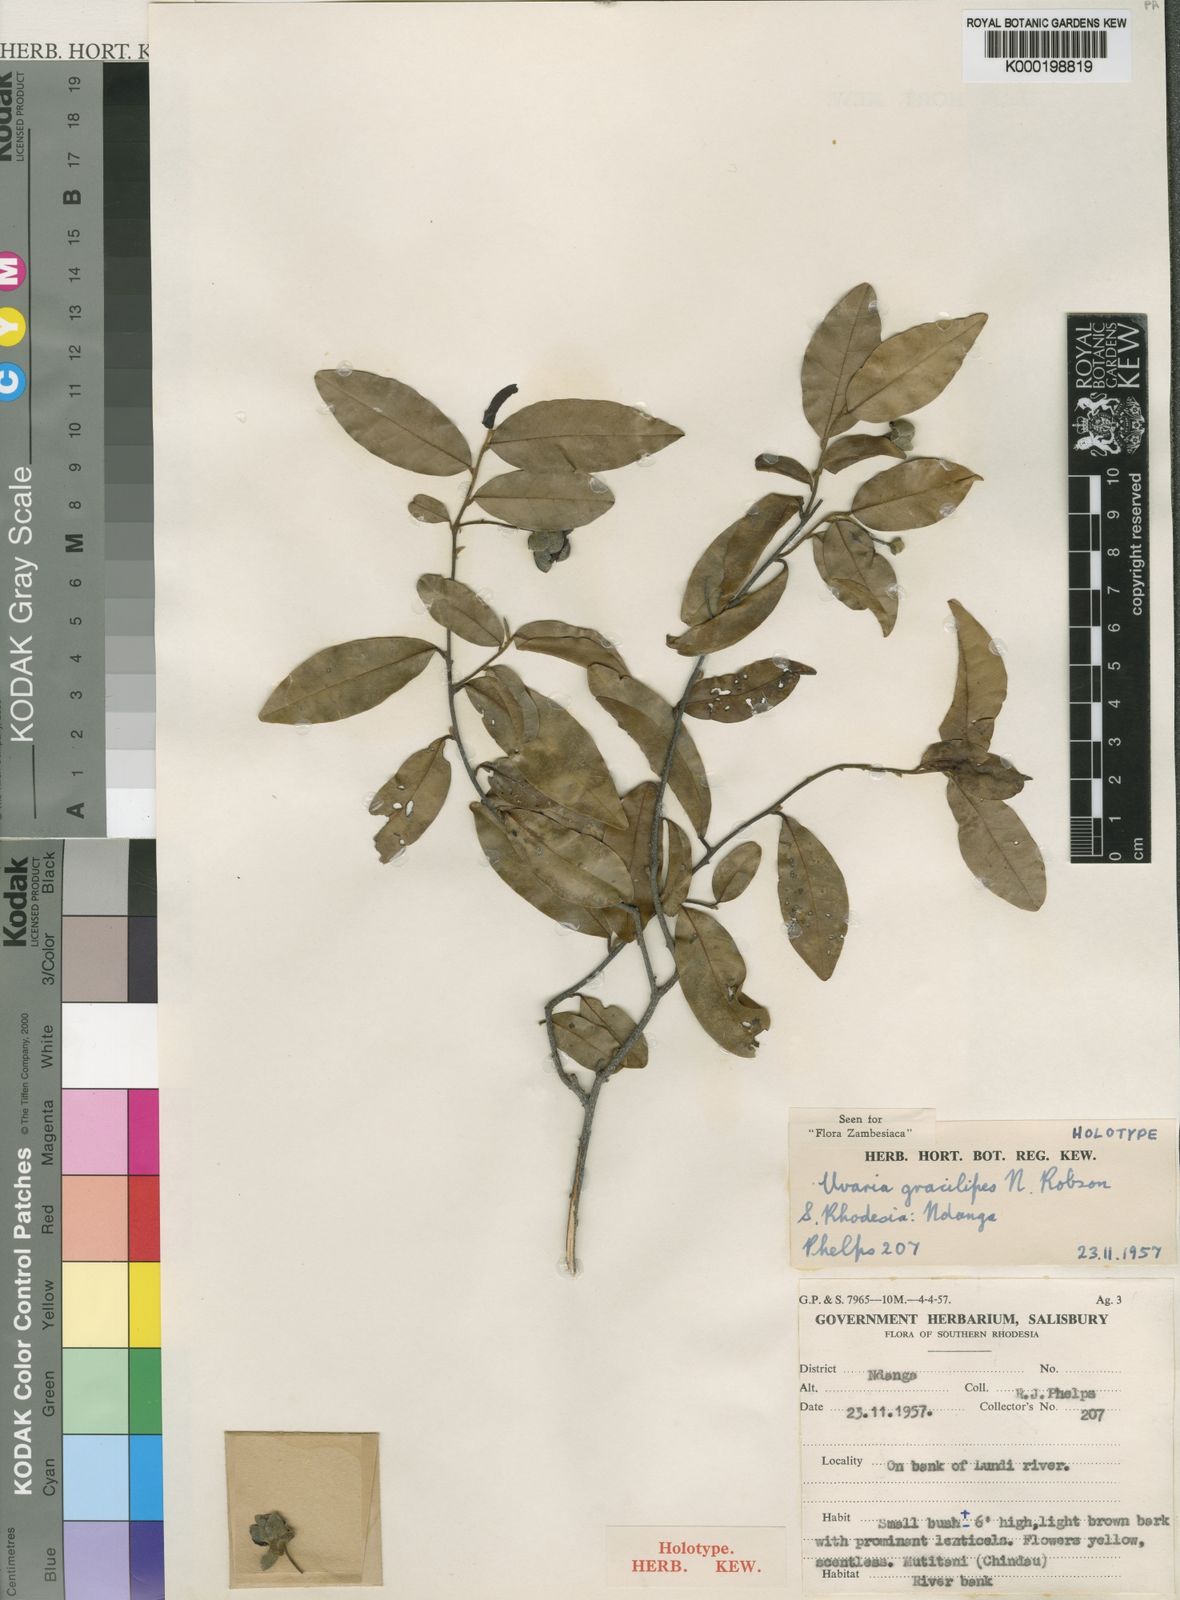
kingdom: Plantae
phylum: Tracheophyta
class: Magnoliopsida
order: Magnoliales
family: Annonaceae
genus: Uvaria
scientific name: Uvaria gracilipes
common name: Small cluster pear
